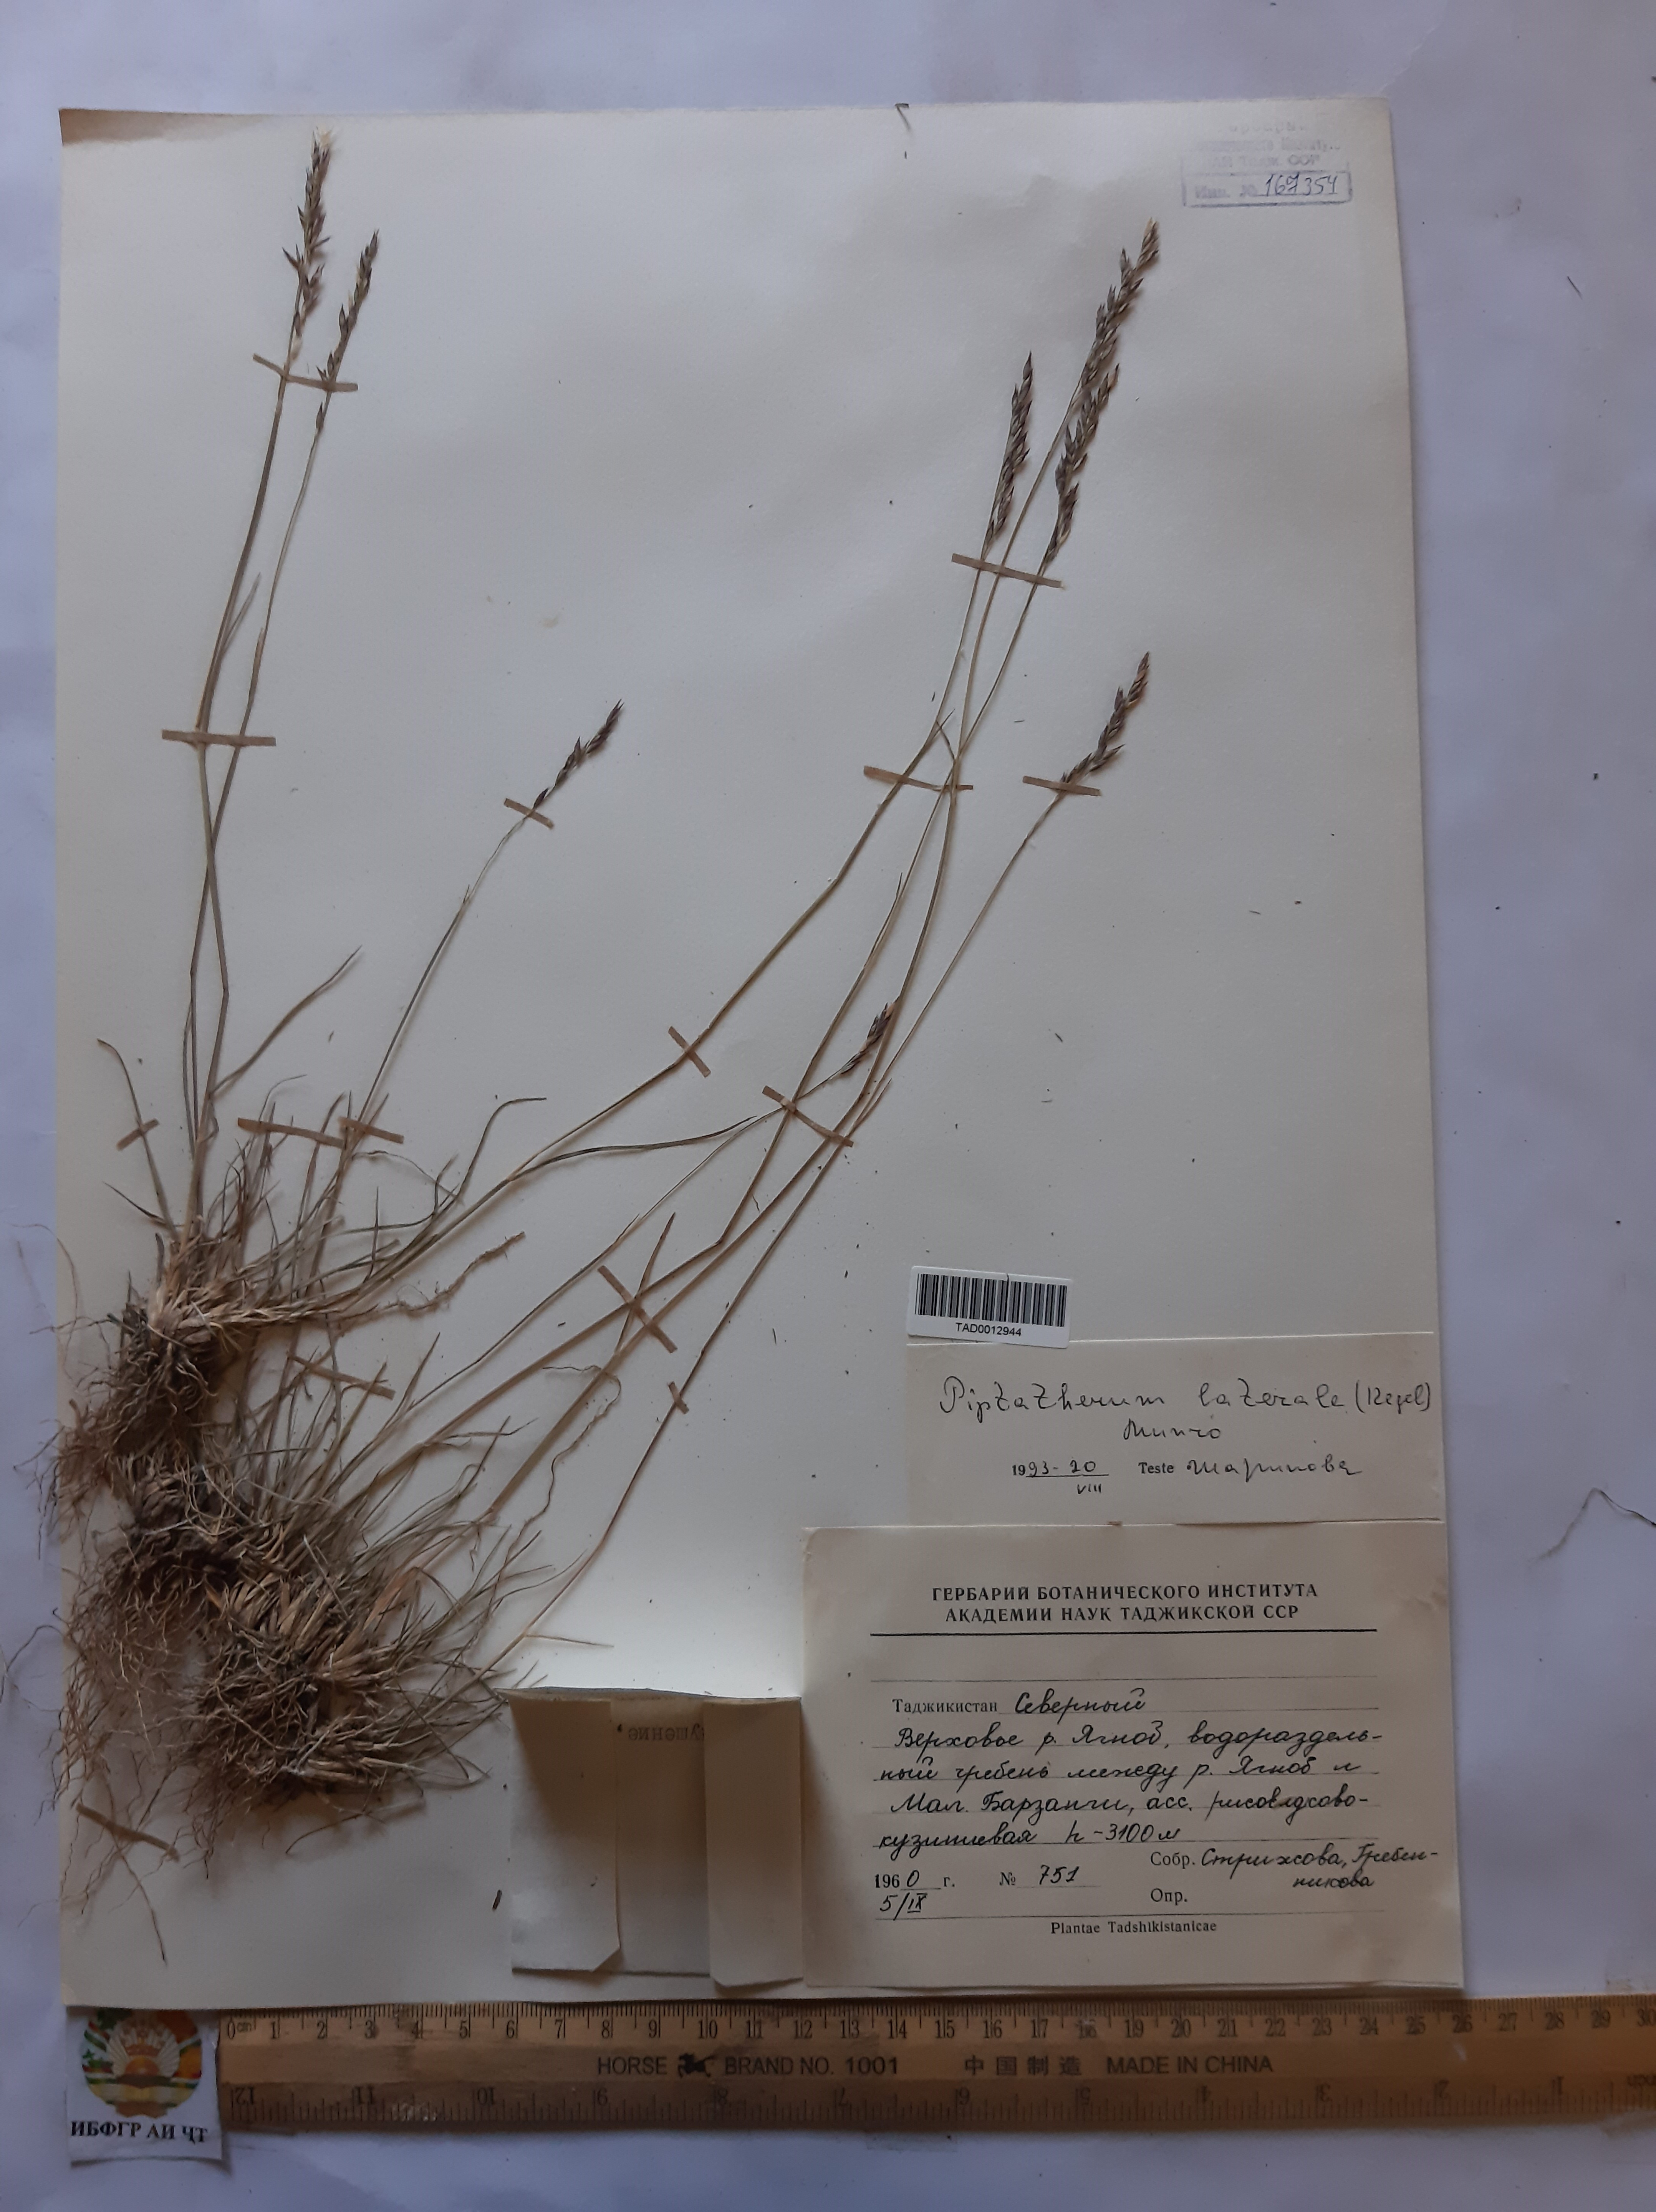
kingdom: Plantae
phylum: Tracheophyta
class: Liliopsida
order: Poales
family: Poaceae
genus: Piptatherum
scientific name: Piptatherum laterale
